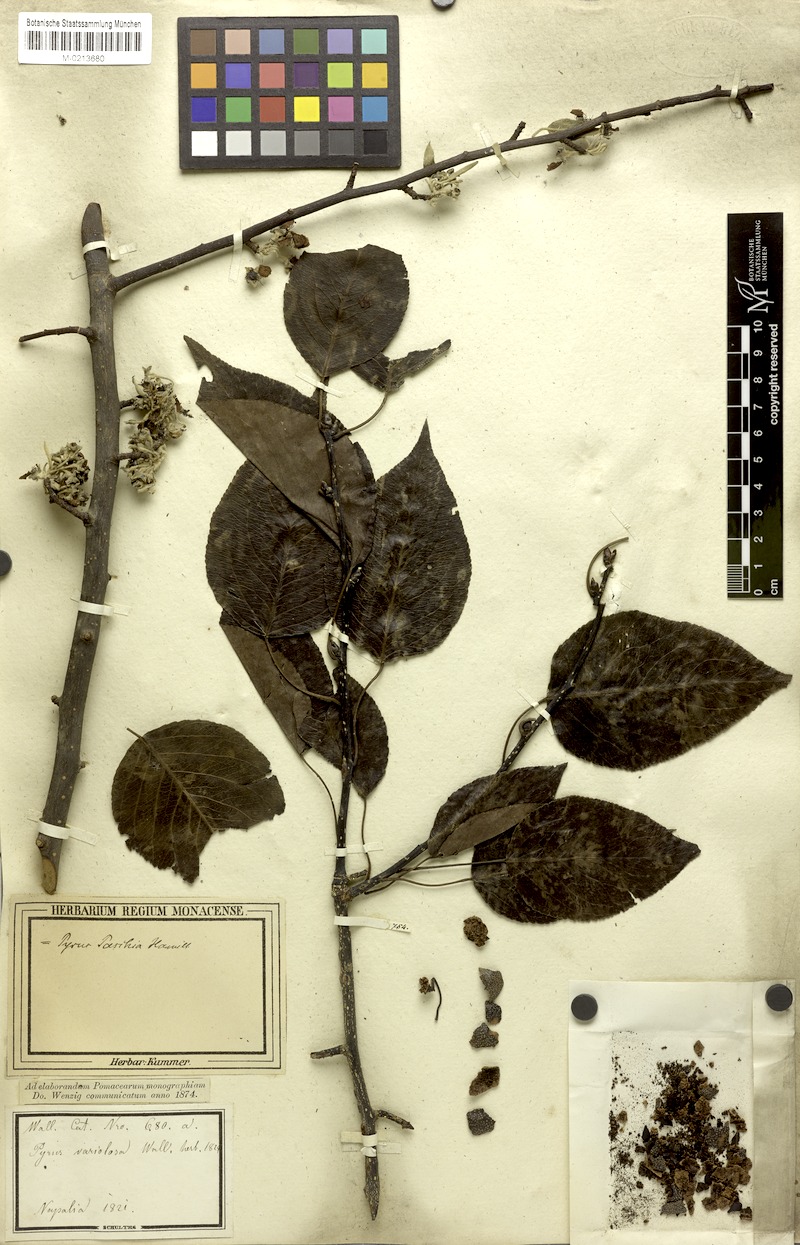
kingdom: Plantae
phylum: Tracheophyta
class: Magnoliopsida
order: Rosales
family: Rosaceae
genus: Pyrus
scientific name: Pyrus pashia
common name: Himalayan pear
